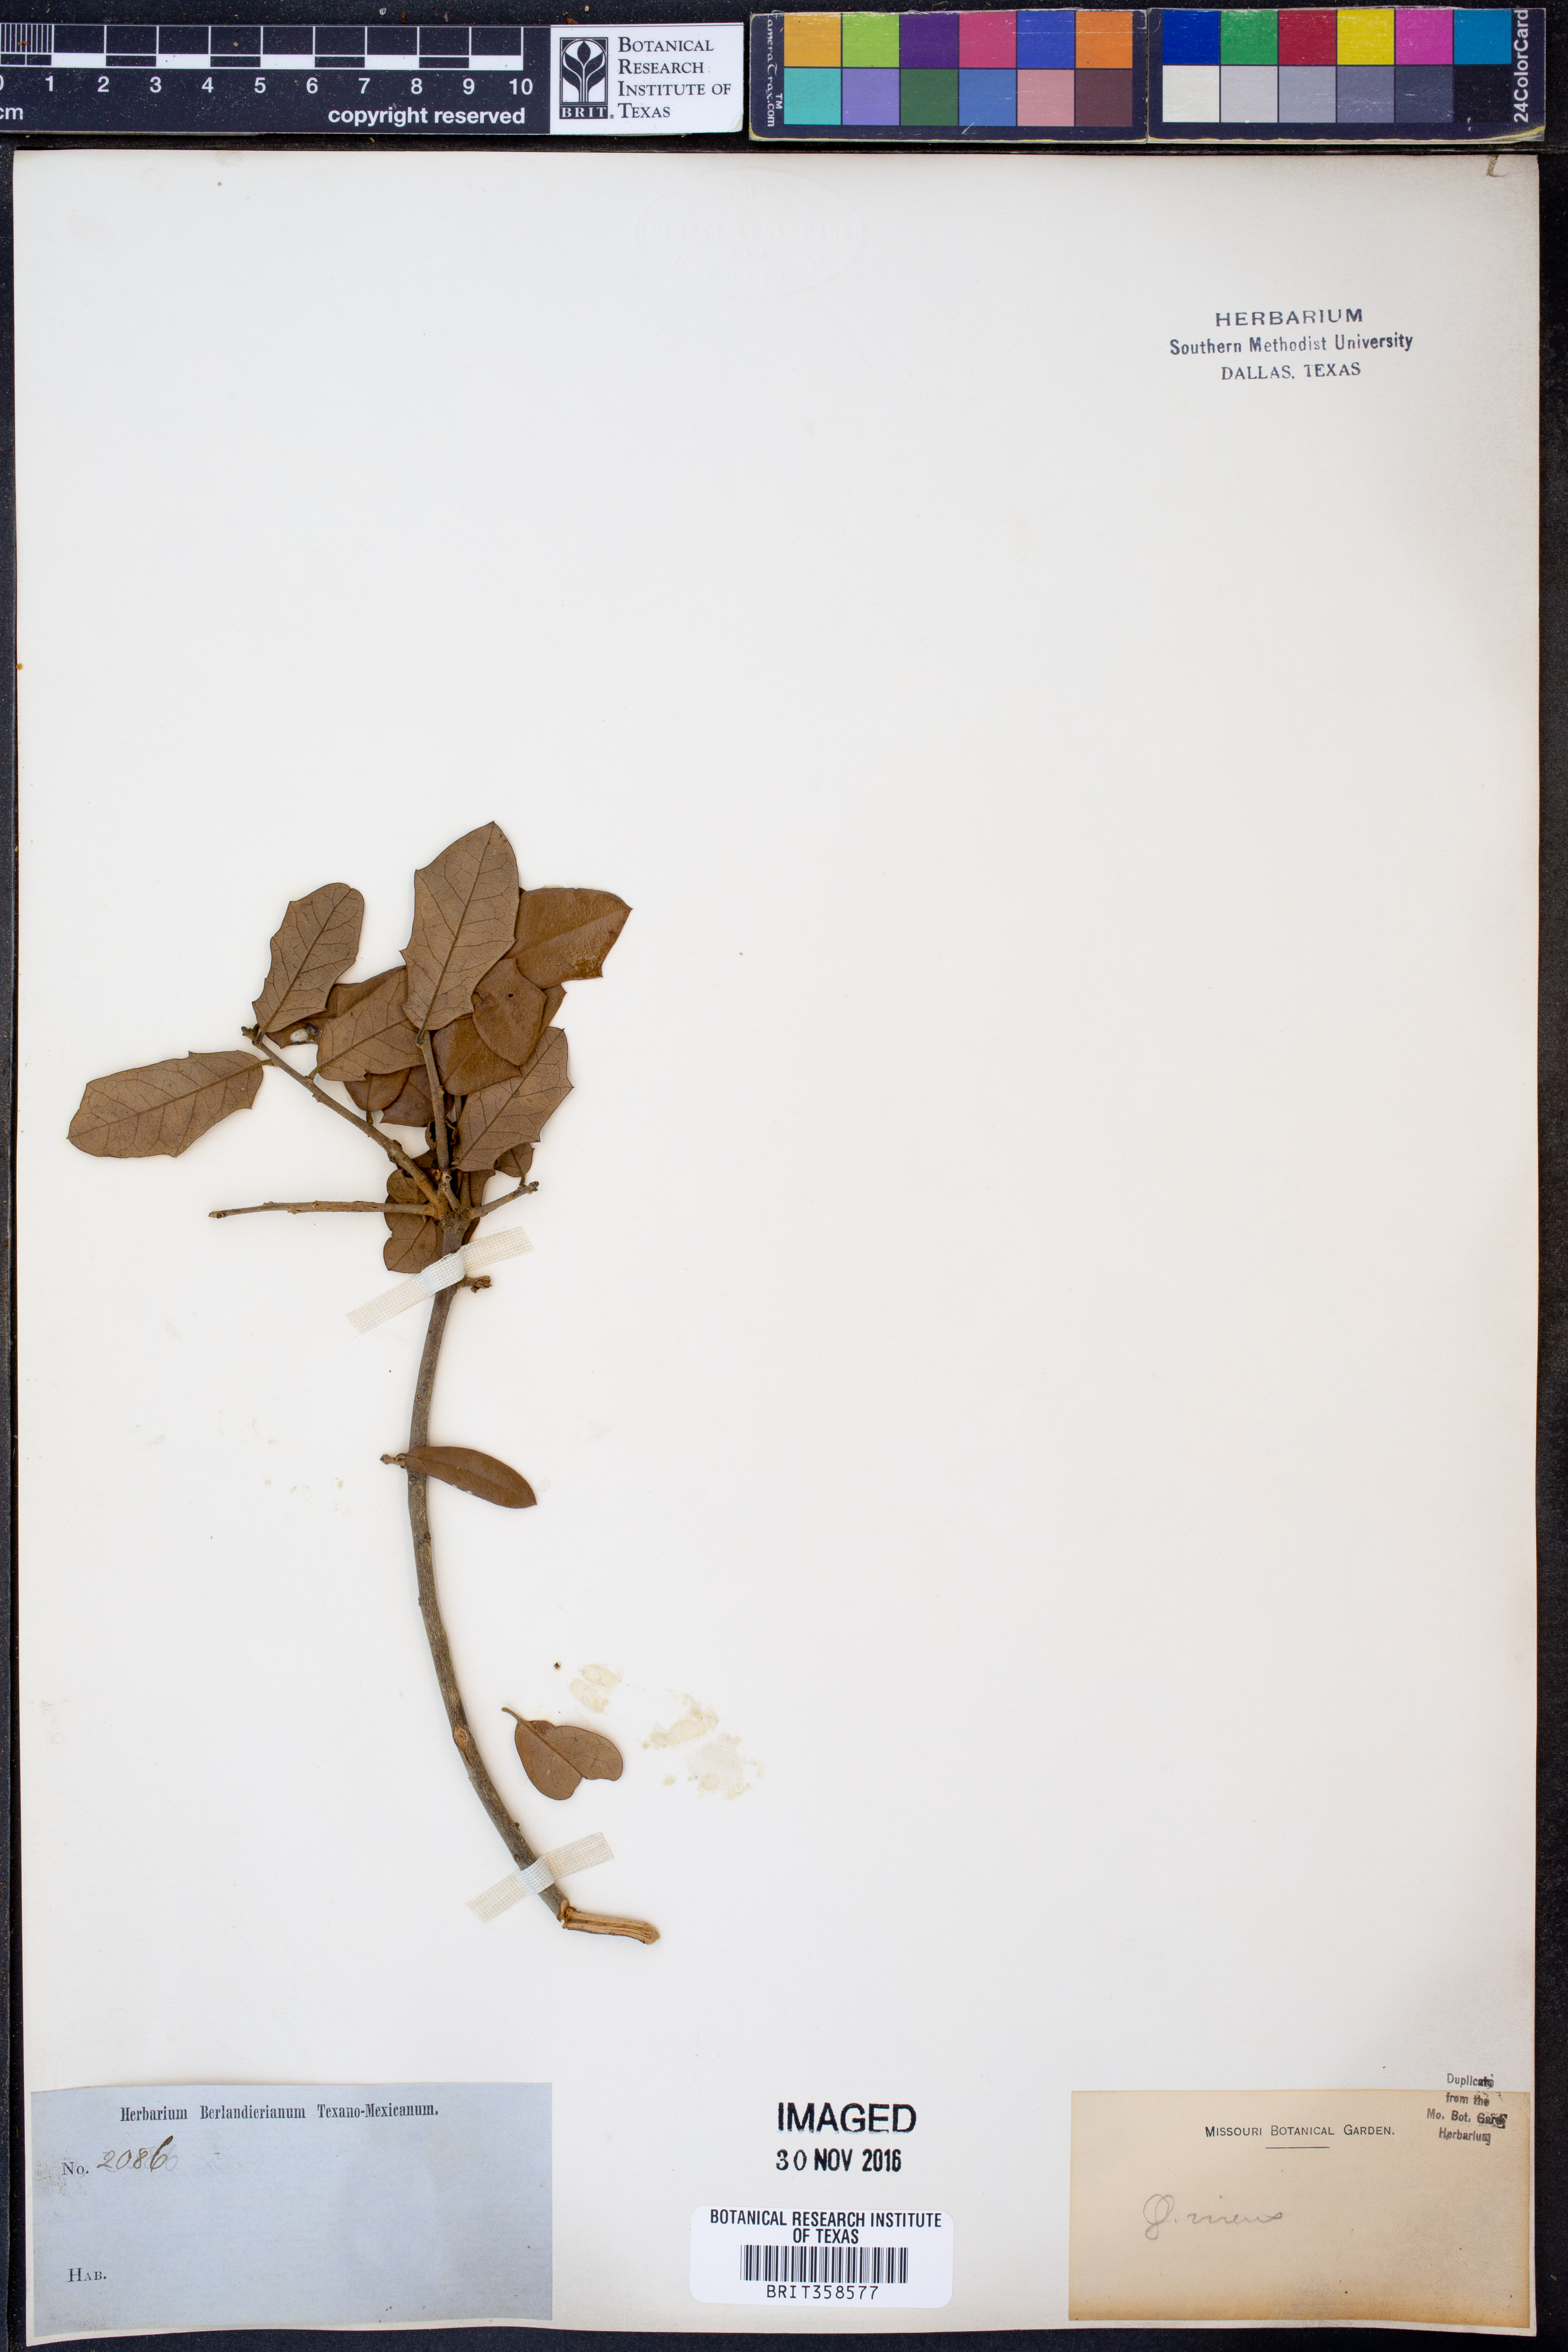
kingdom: Plantae
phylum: Tracheophyta
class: Magnoliopsida
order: Fagales
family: Fagaceae
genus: Quercus
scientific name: Quercus
